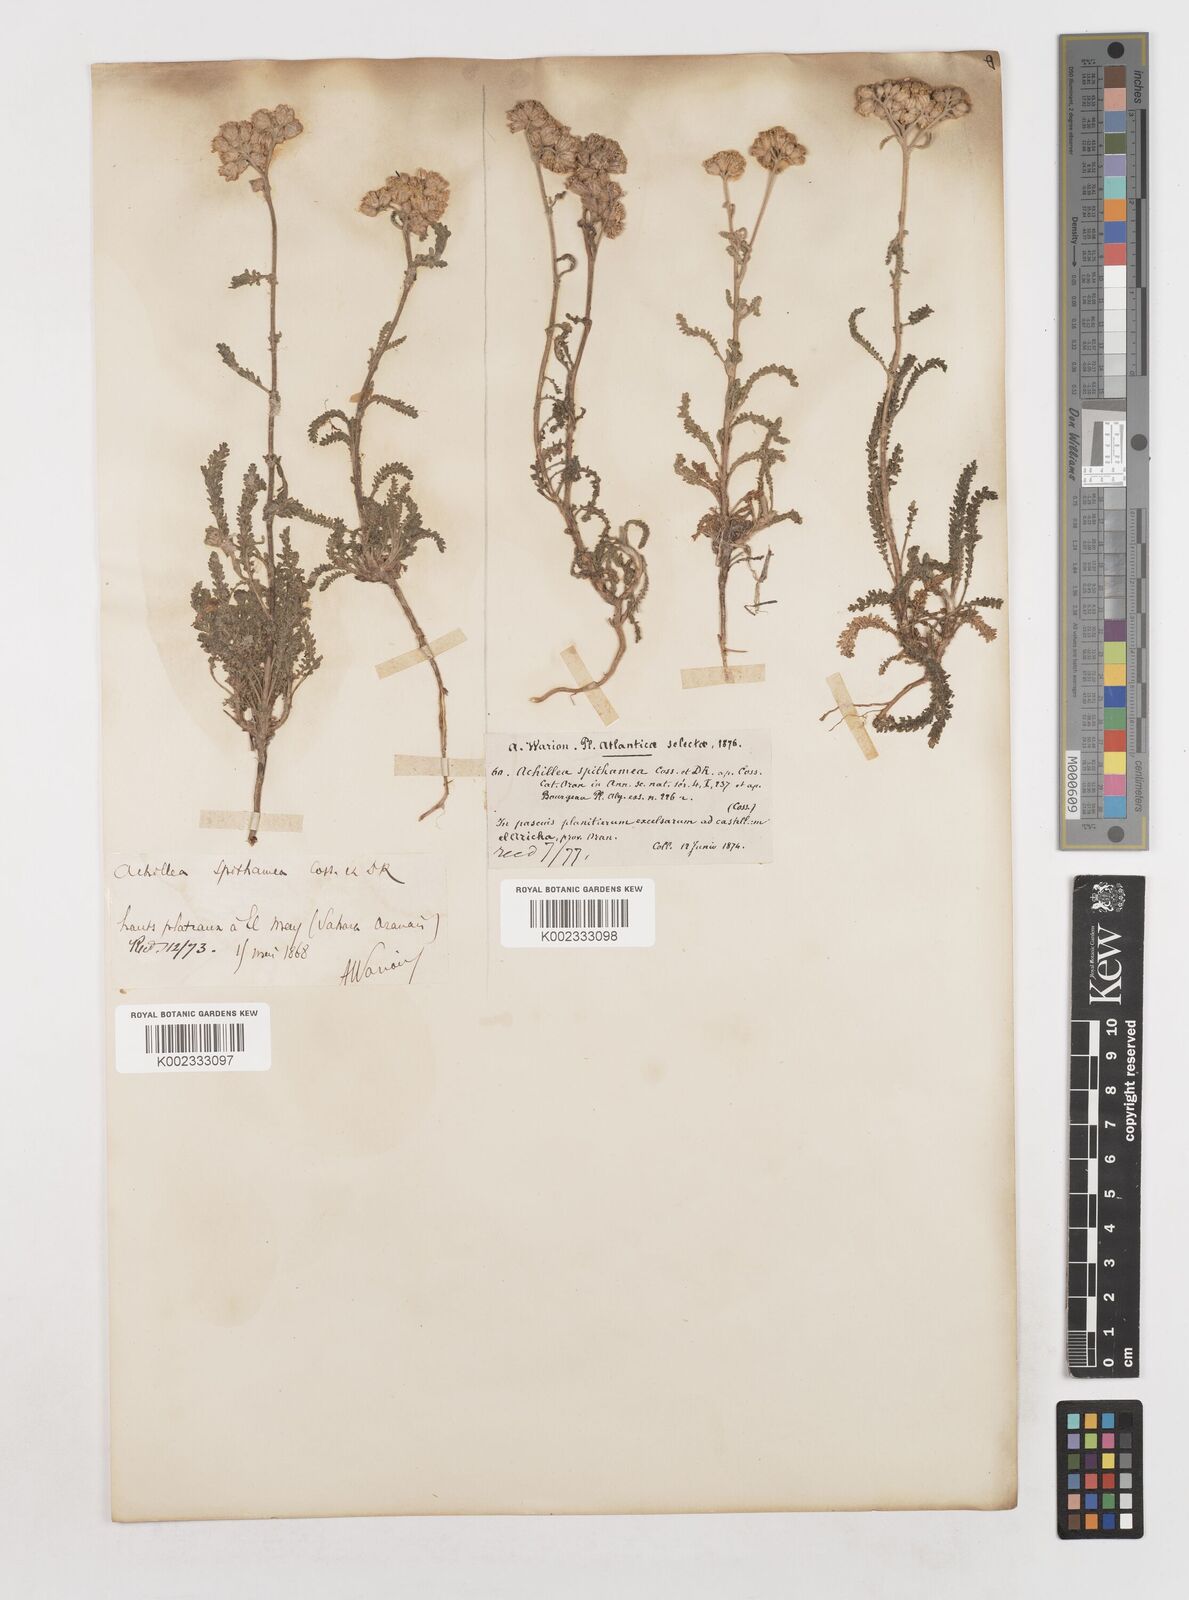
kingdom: Plantae
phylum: Tracheophyta
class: Magnoliopsida
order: Asterales
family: Asteraceae
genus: Achillea
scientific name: Achillea leptophylla
